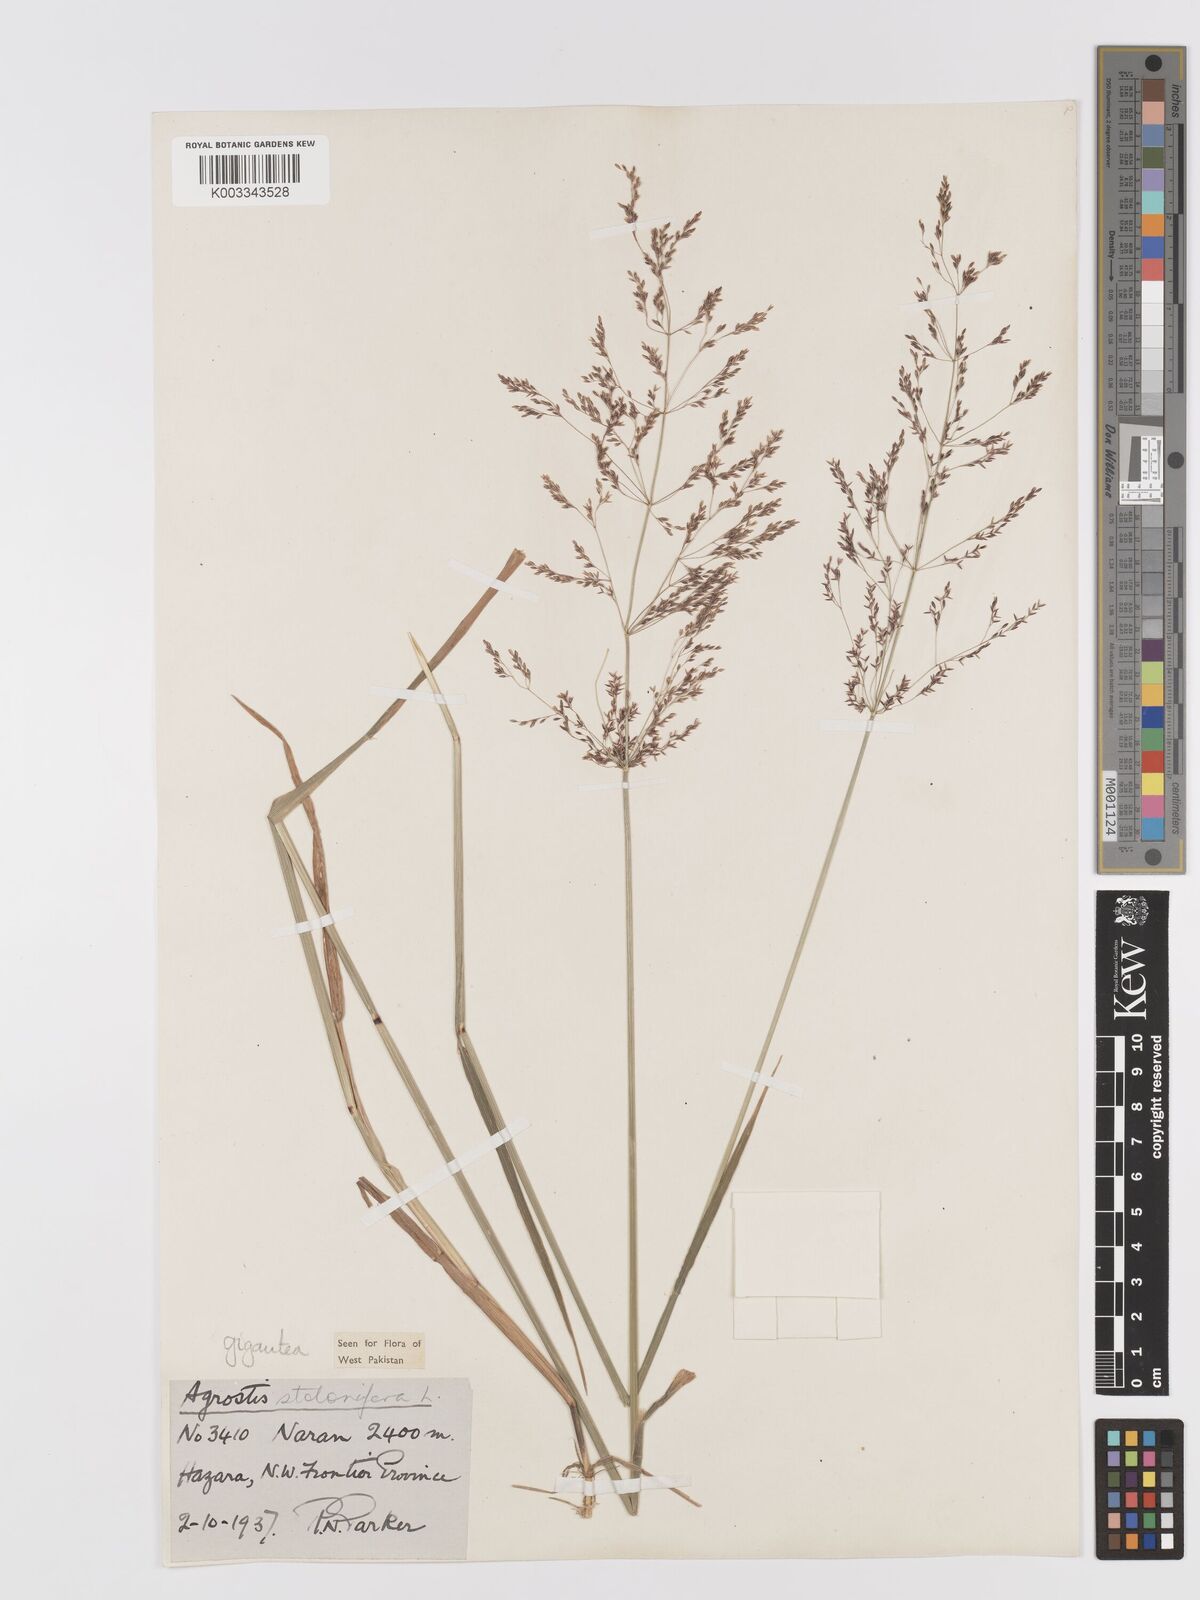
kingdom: Plantae
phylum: Tracheophyta
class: Liliopsida
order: Poales
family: Poaceae
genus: Agrostis
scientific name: Agrostis gigantea
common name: Black bent
